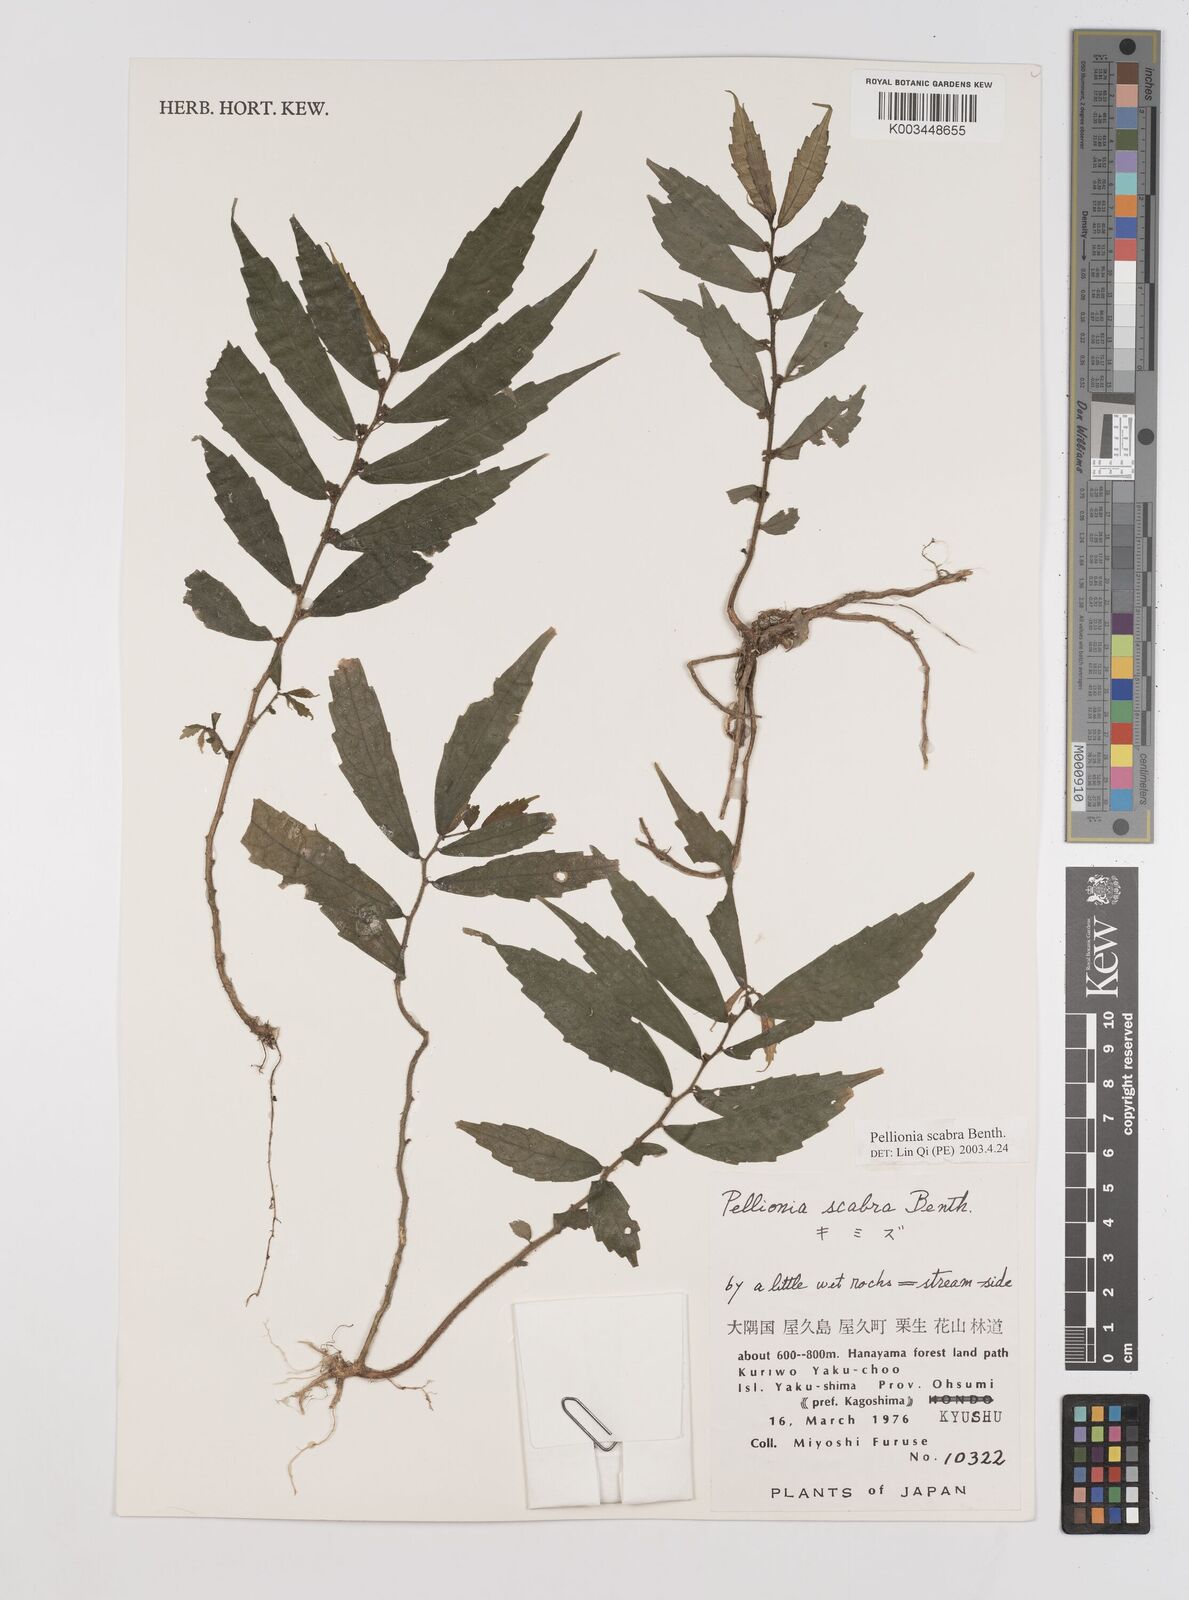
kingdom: Plantae
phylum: Tracheophyta
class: Magnoliopsida
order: Rosales
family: Urticaceae
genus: Elatostema
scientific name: Elatostema
